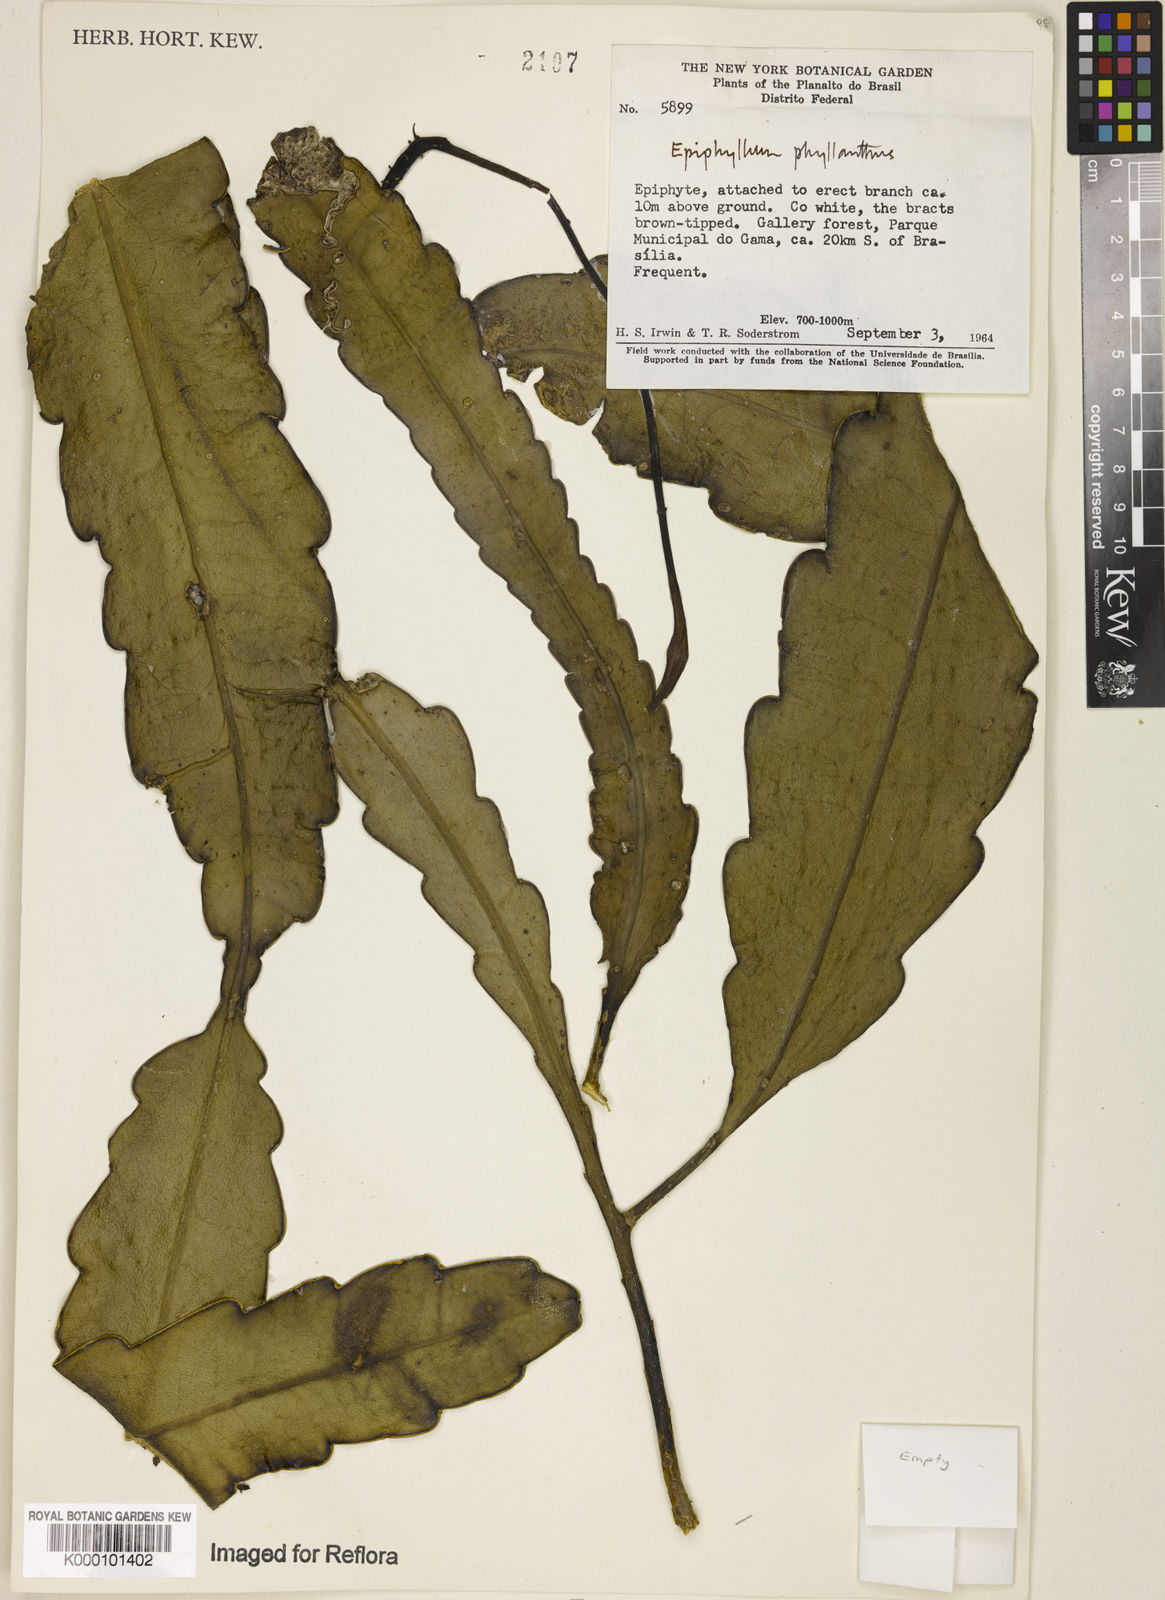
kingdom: Plantae
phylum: Tracheophyta
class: Magnoliopsida
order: Caryophyllales
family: Cactaceae
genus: Epiphyllum
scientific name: Epiphyllum phyllanthus
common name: Climbing cactus
